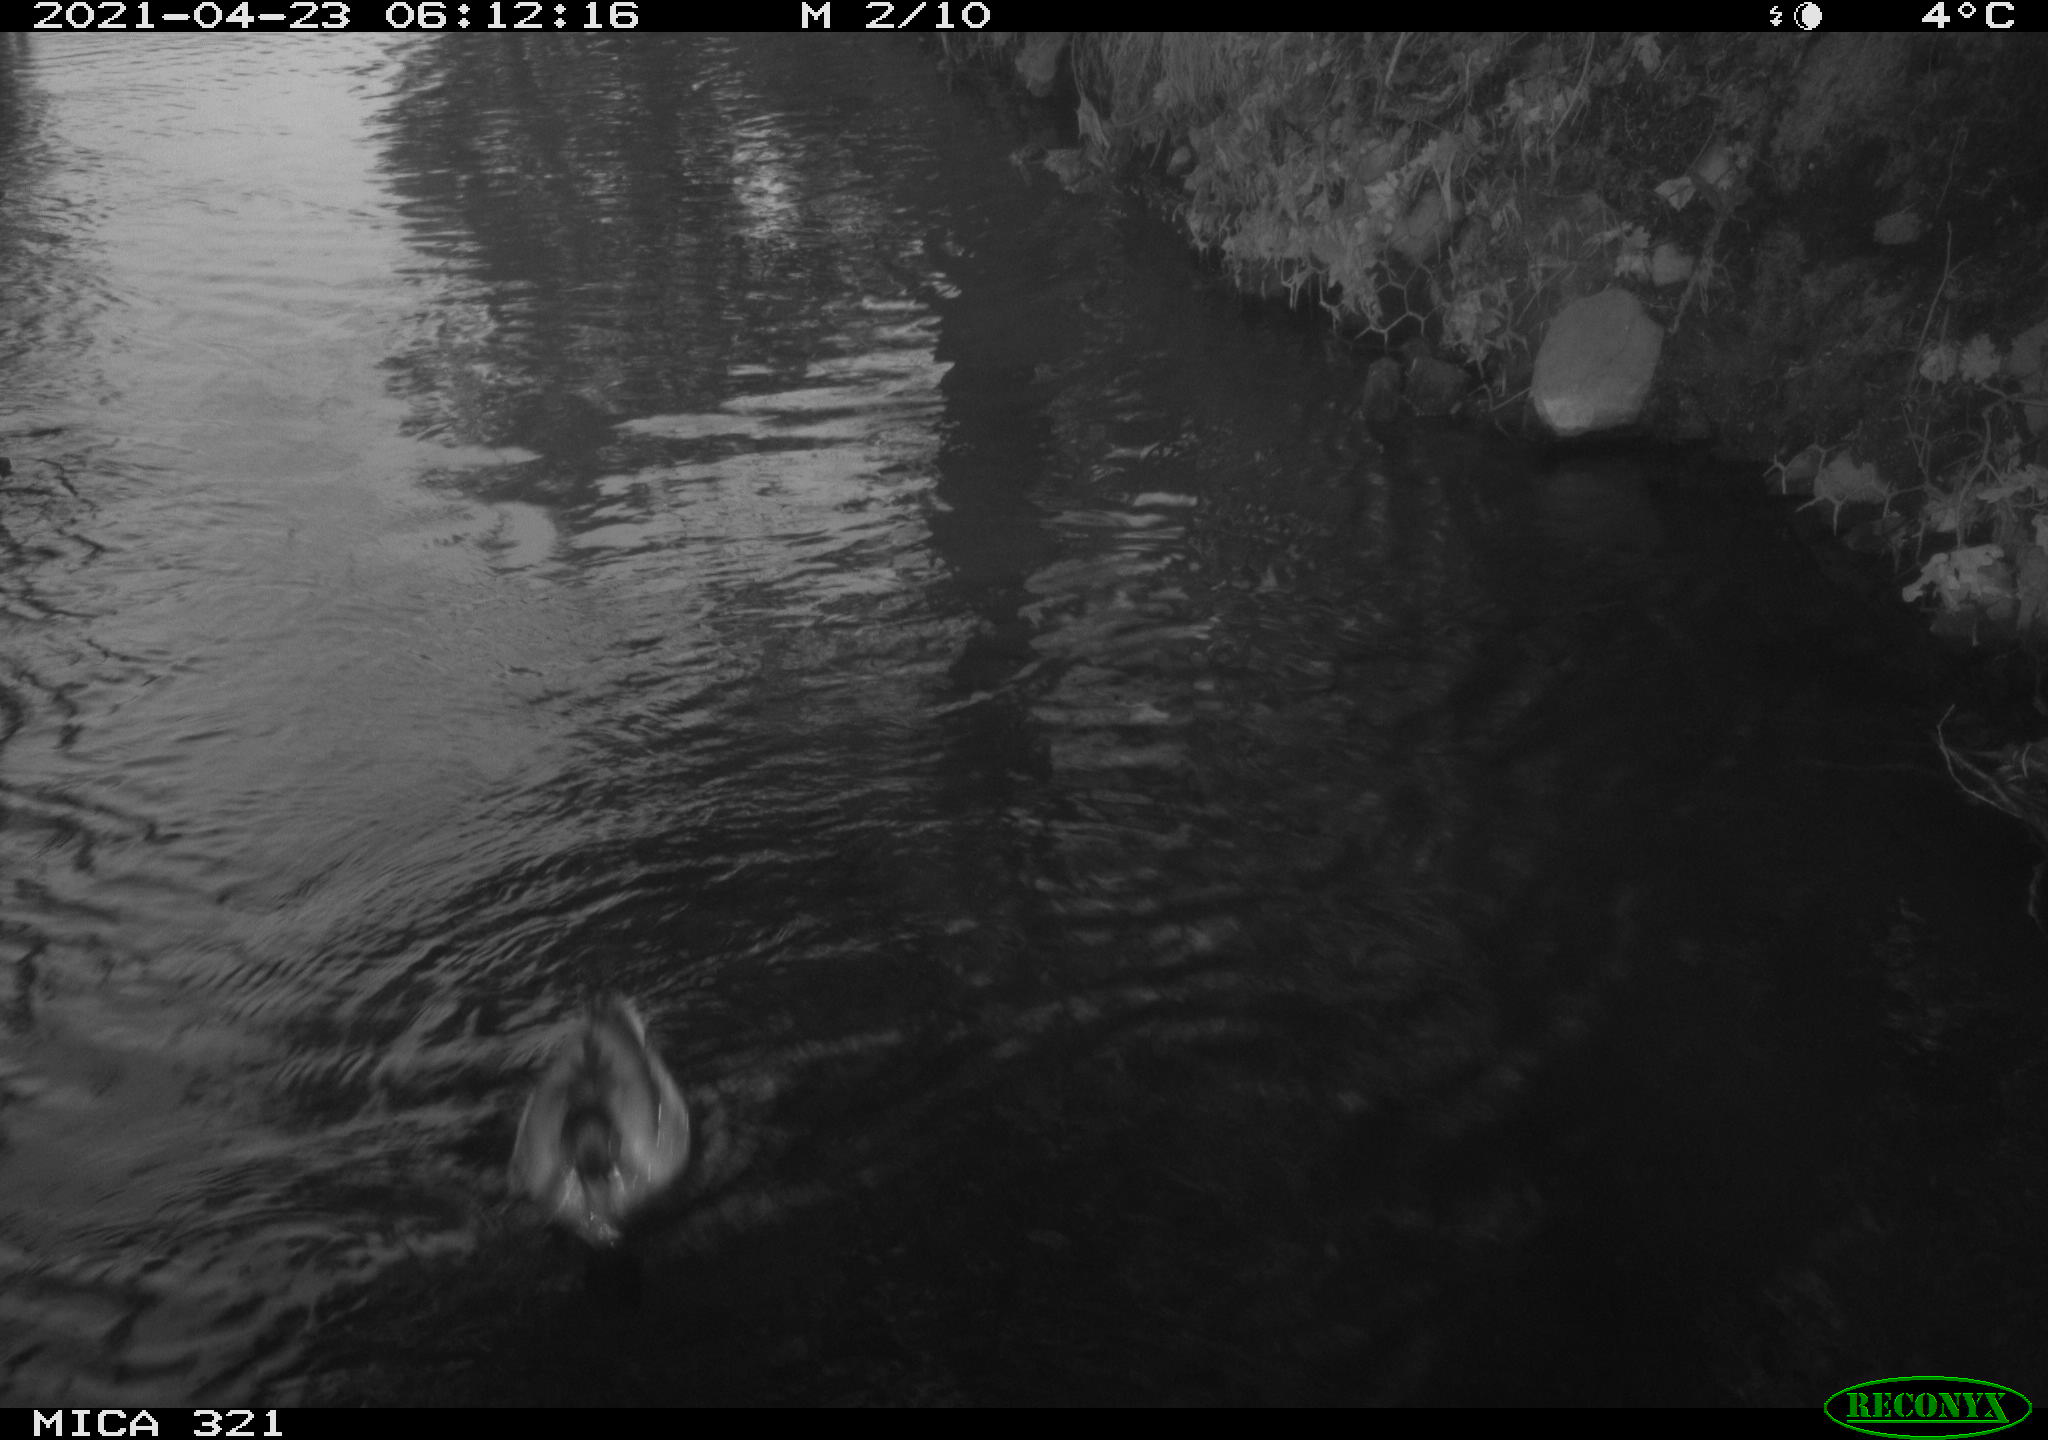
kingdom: Animalia
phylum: Chordata
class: Aves
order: Anseriformes
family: Anatidae
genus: Anas
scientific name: Anas
